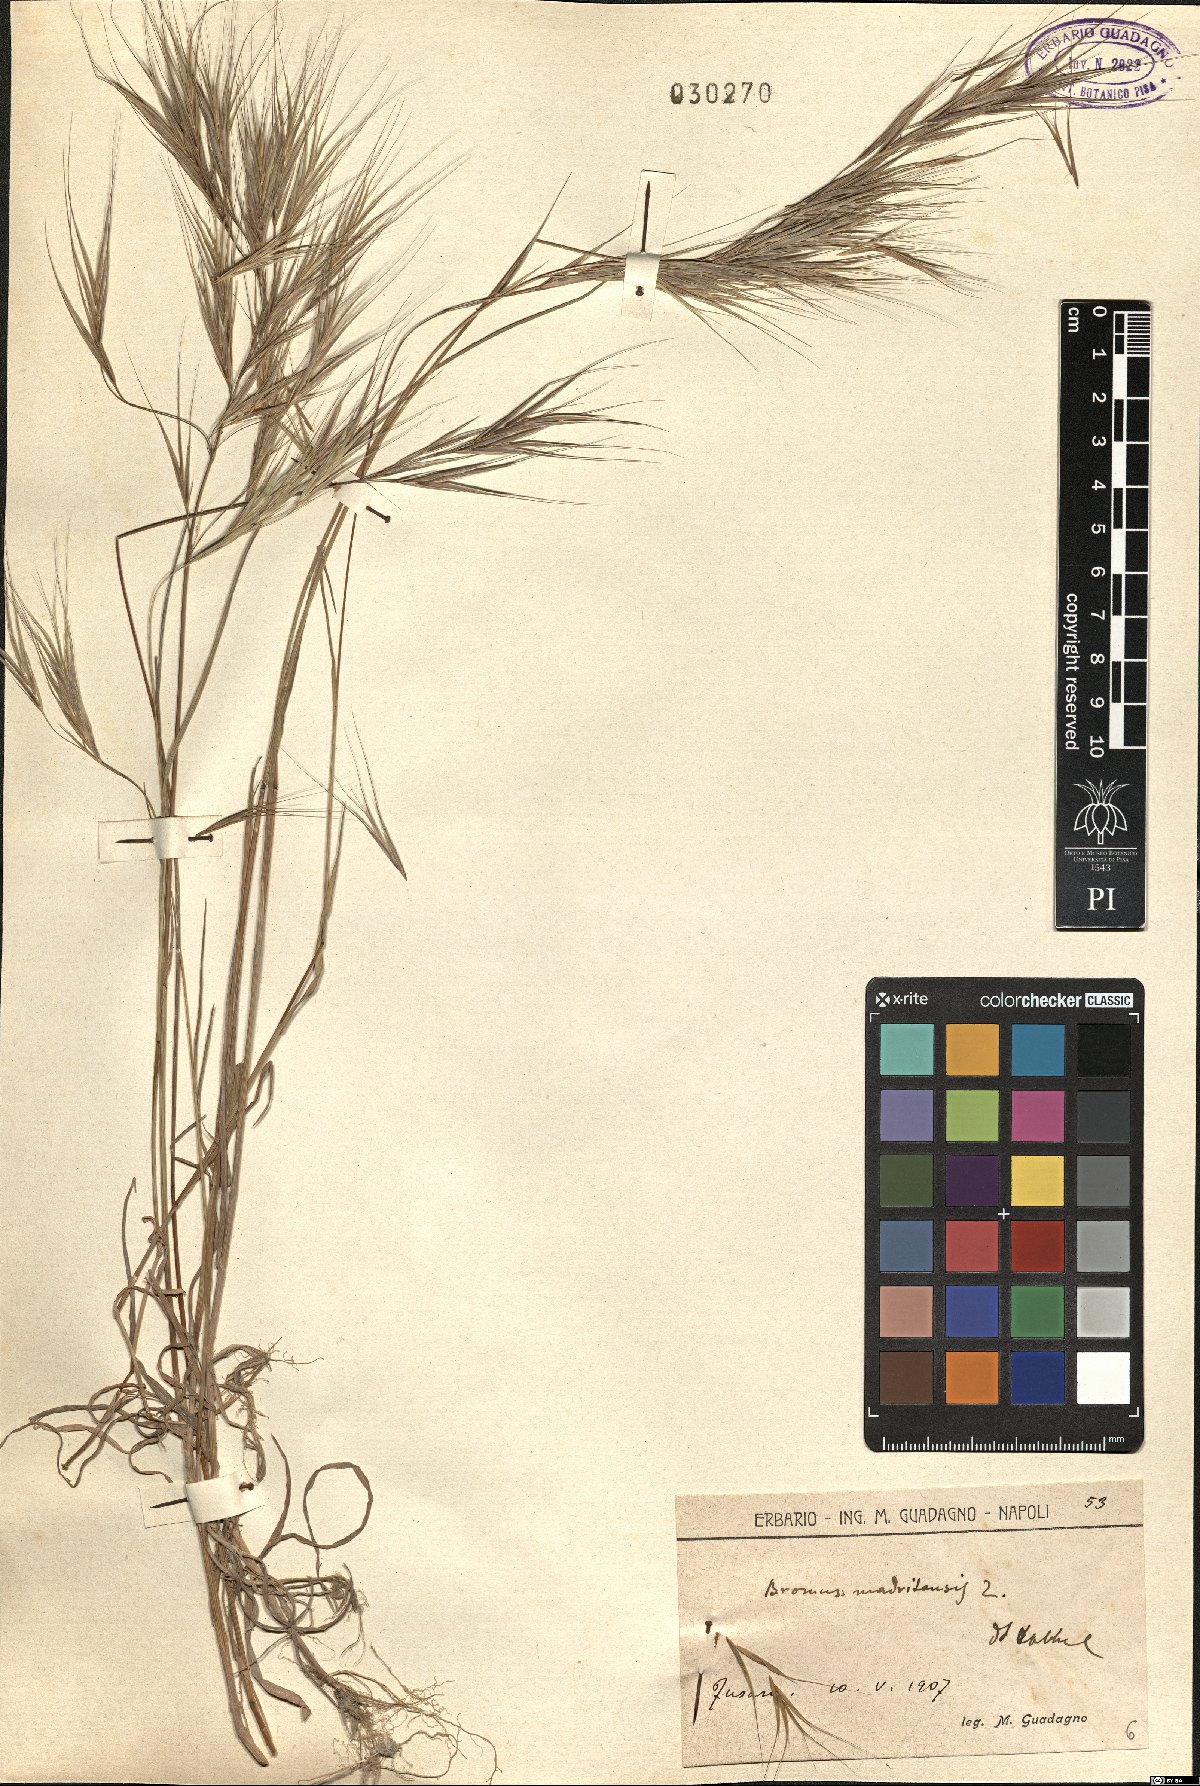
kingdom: Plantae
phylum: Tracheophyta
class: Liliopsida
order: Poales
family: Poaceae
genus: Bromus
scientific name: Bromus madritensis
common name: Compact brome
